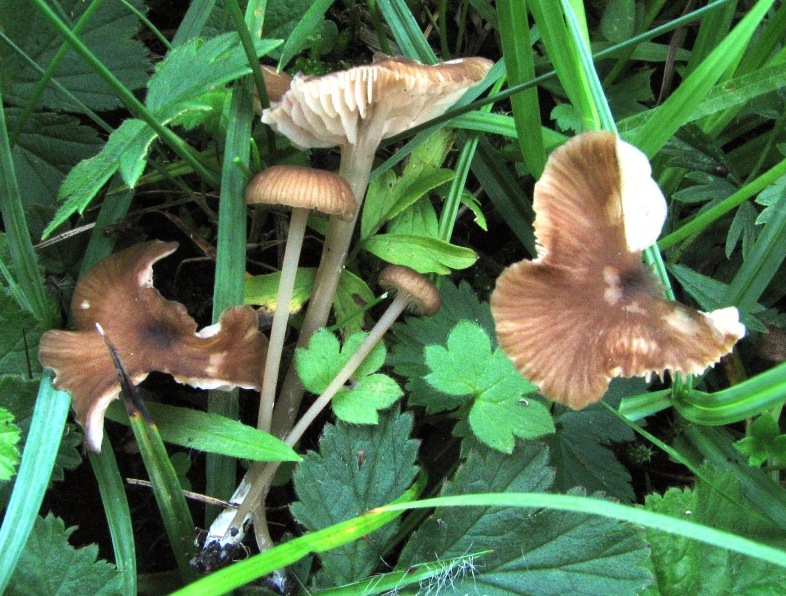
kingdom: Fungi
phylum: Basidiomycota
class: Agaricomycetes
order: Agaricales
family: Entolomataceae
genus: Entoloma
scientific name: Entoloma olivaceotinctum
